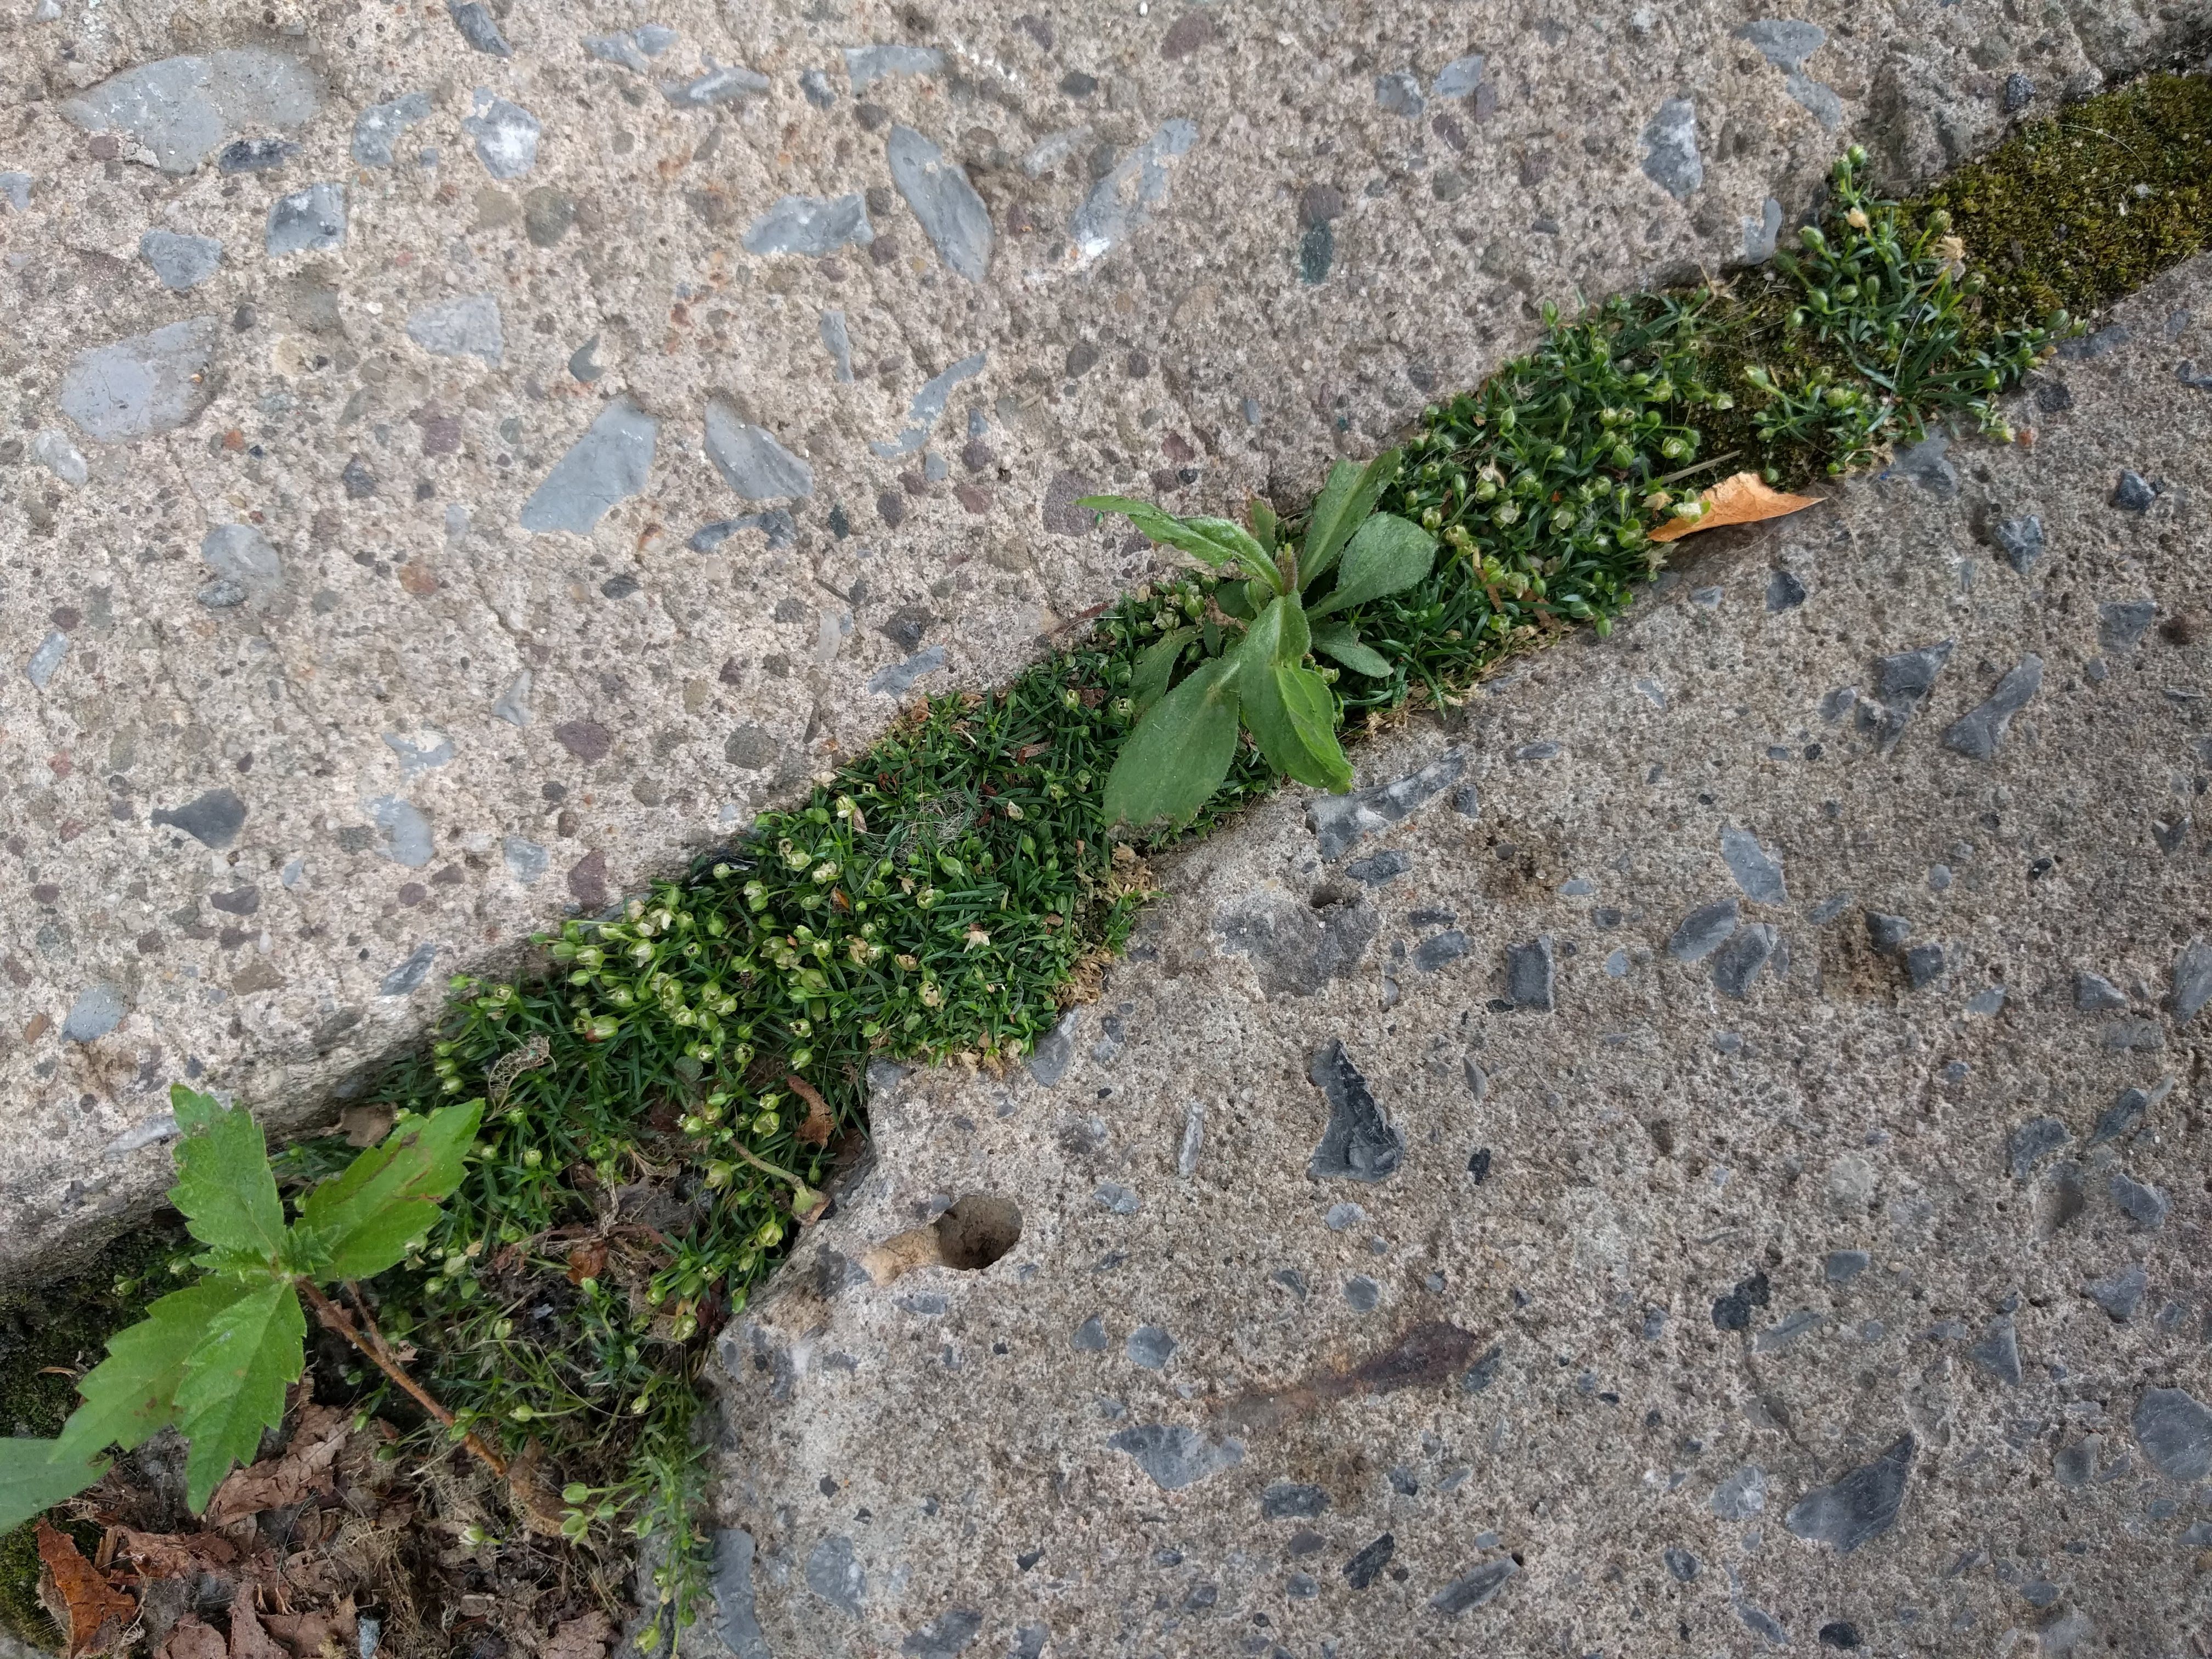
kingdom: Plantae
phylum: Tracheophyta
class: Magnoliopsida
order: Caryophyllales
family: Caryophyllaceae
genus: Sagina
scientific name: Sagina procumbens
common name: Procumbent pearlwort
